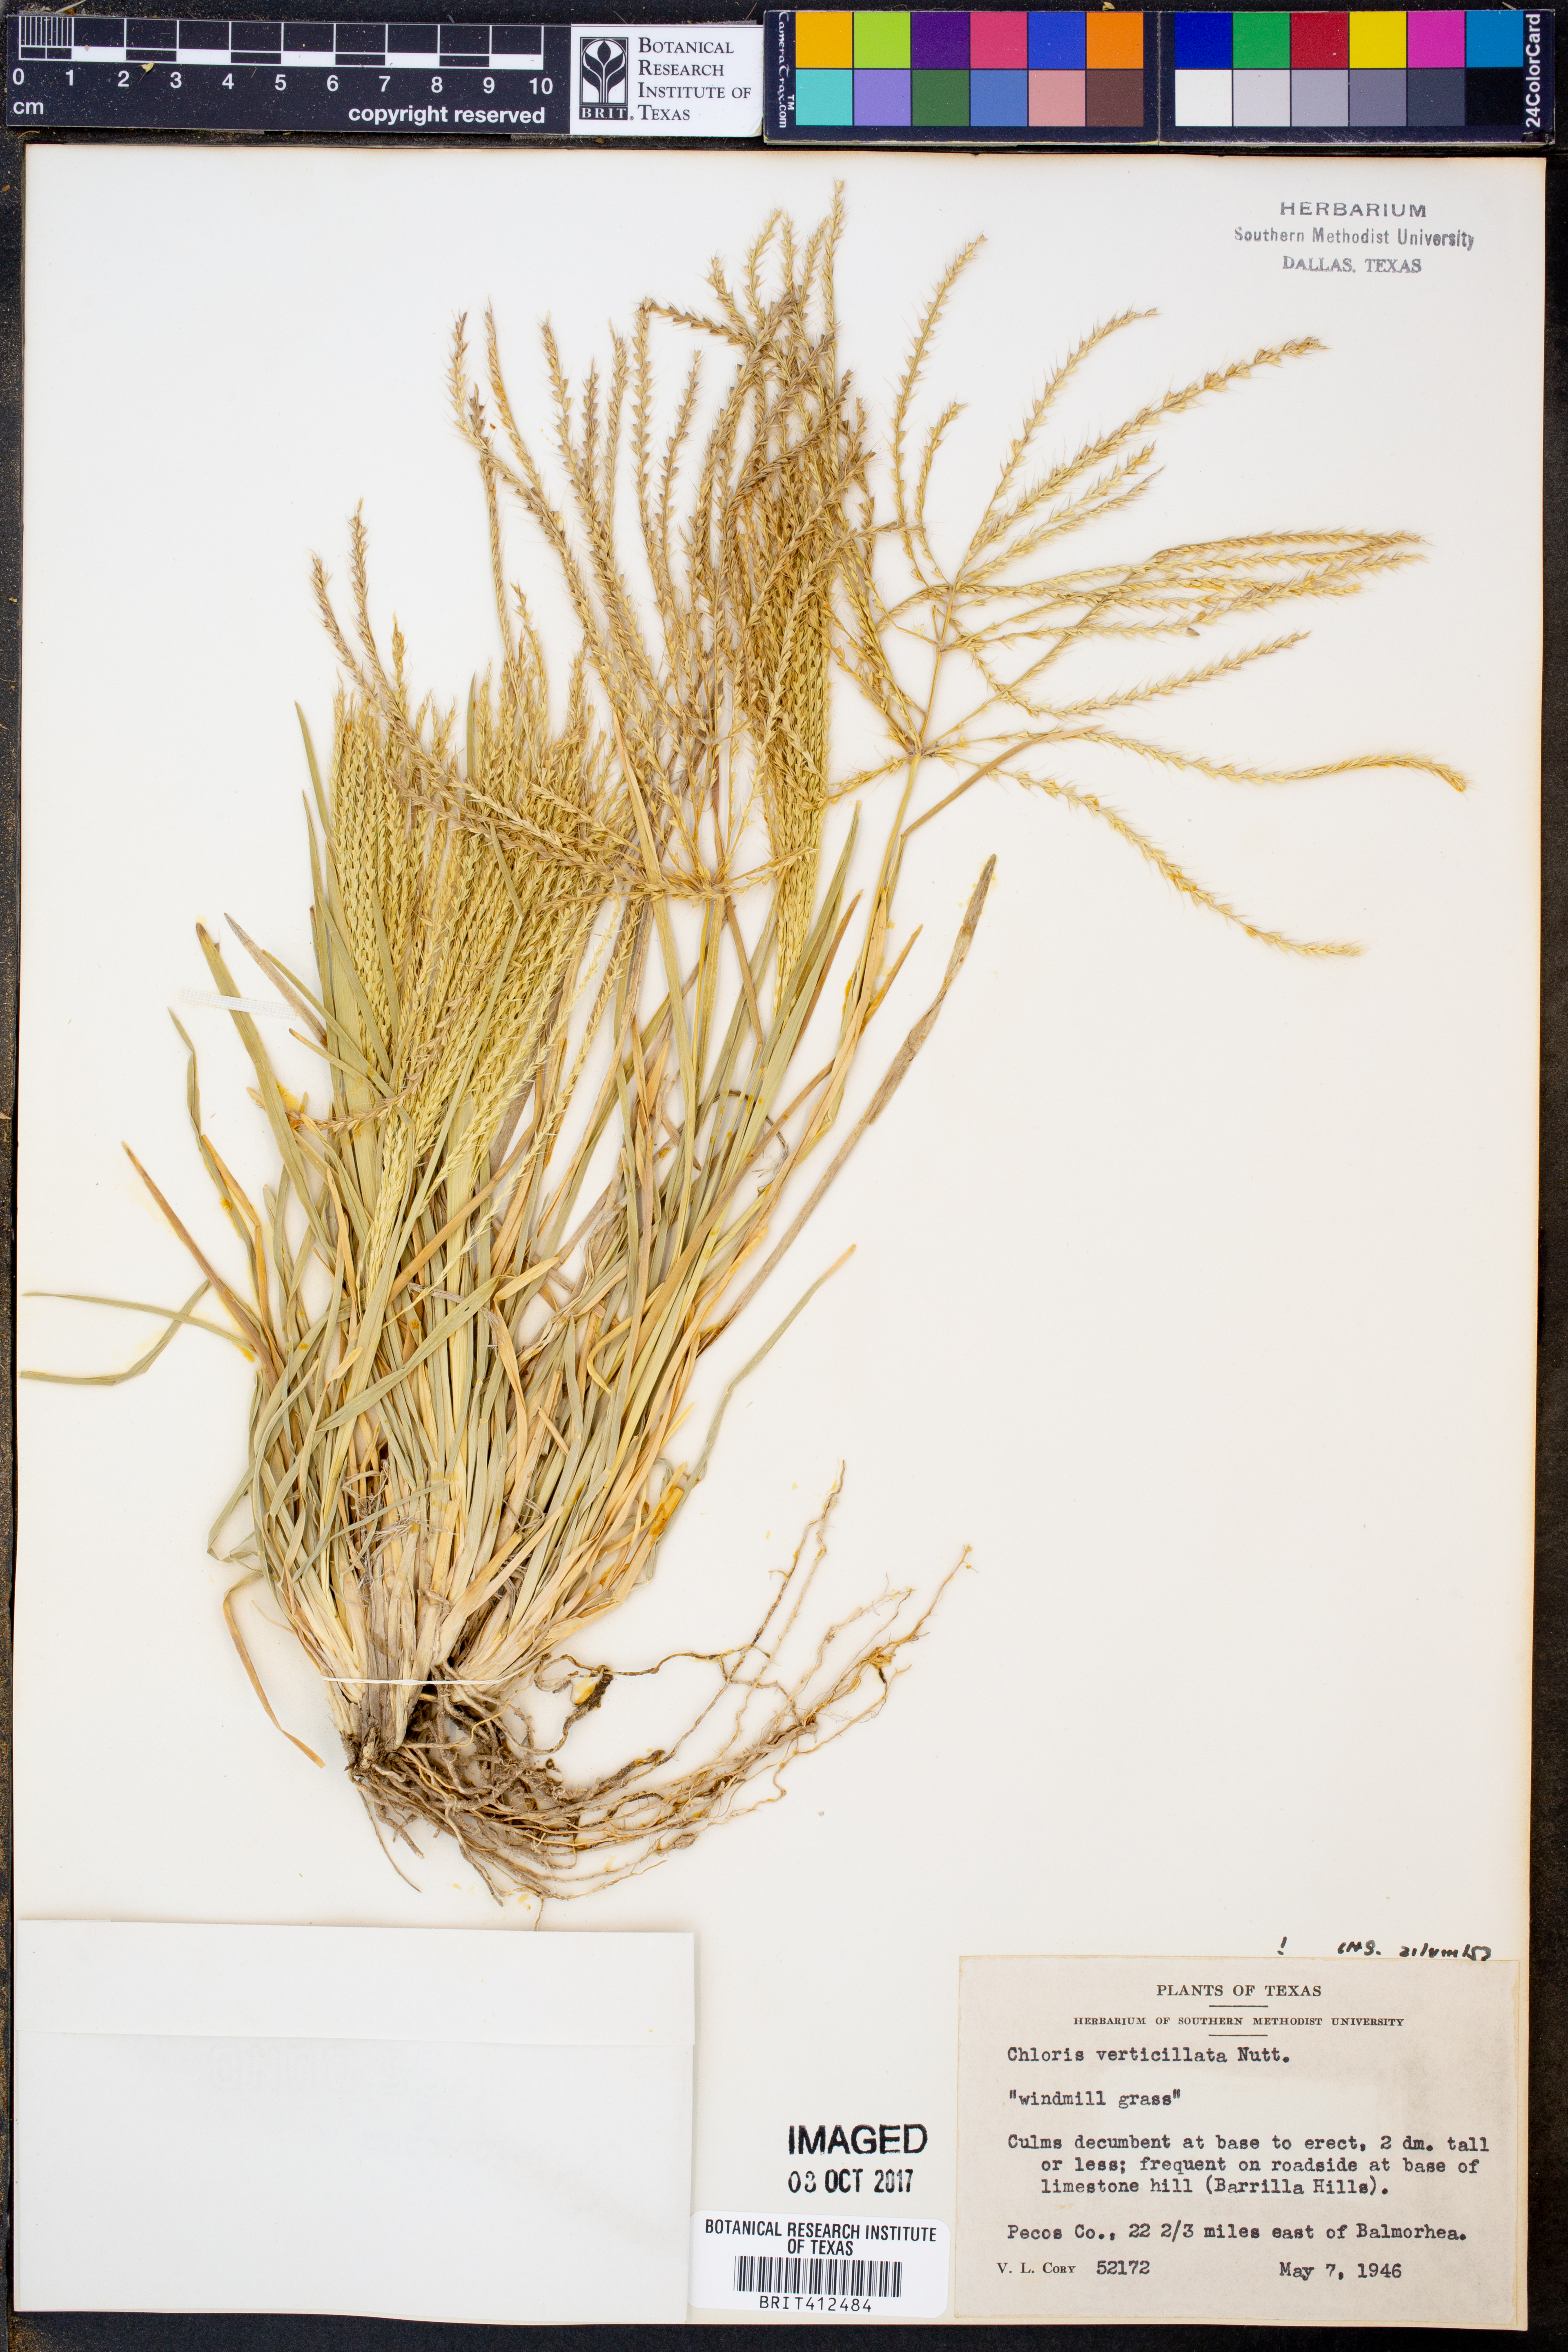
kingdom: Plantae
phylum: Tracheophyta
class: Liliopsida
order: Poales
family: Poaceae
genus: Chloris
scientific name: Chloris verticillata
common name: Tumble windmill grass
